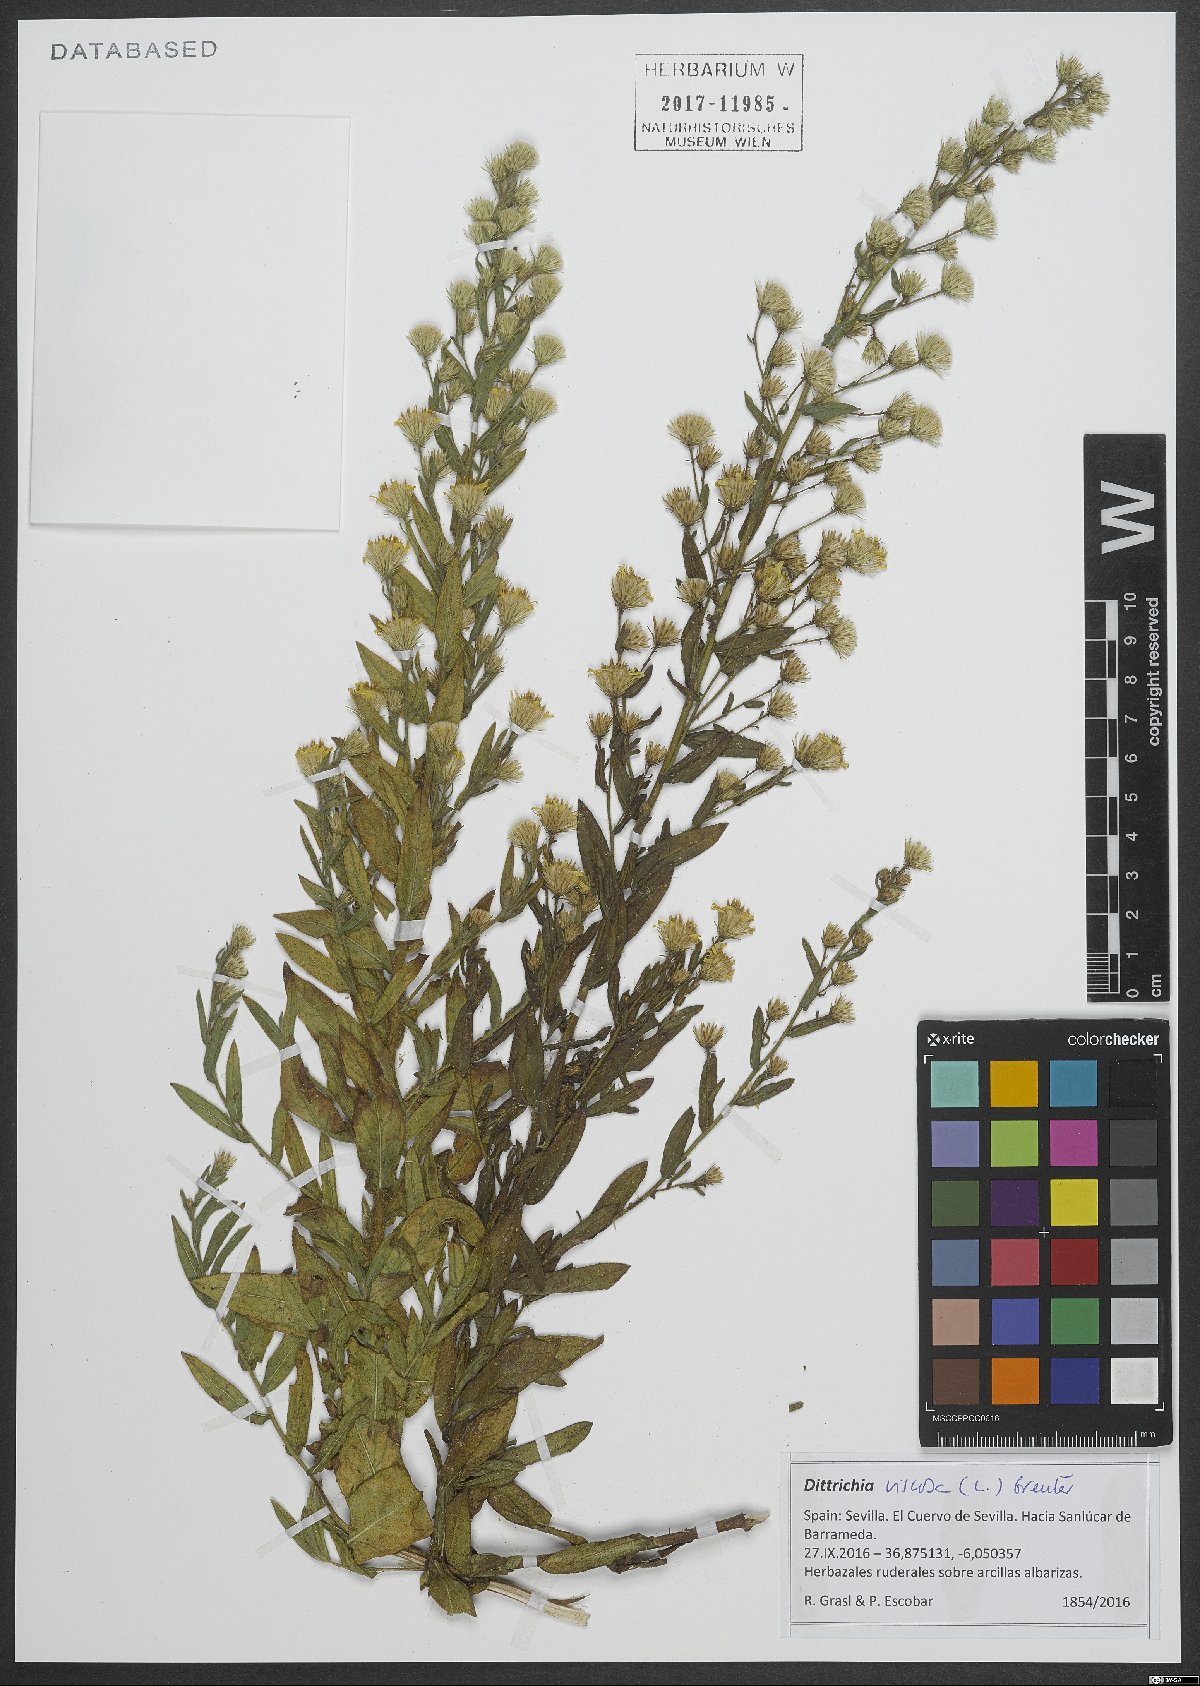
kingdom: Plantae
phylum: Tracheophyta
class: Magnoliopsida
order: Asterales
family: Asteraceae
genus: Dittrichia
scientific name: Dittrichia viscosa
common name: Woody fleabane
